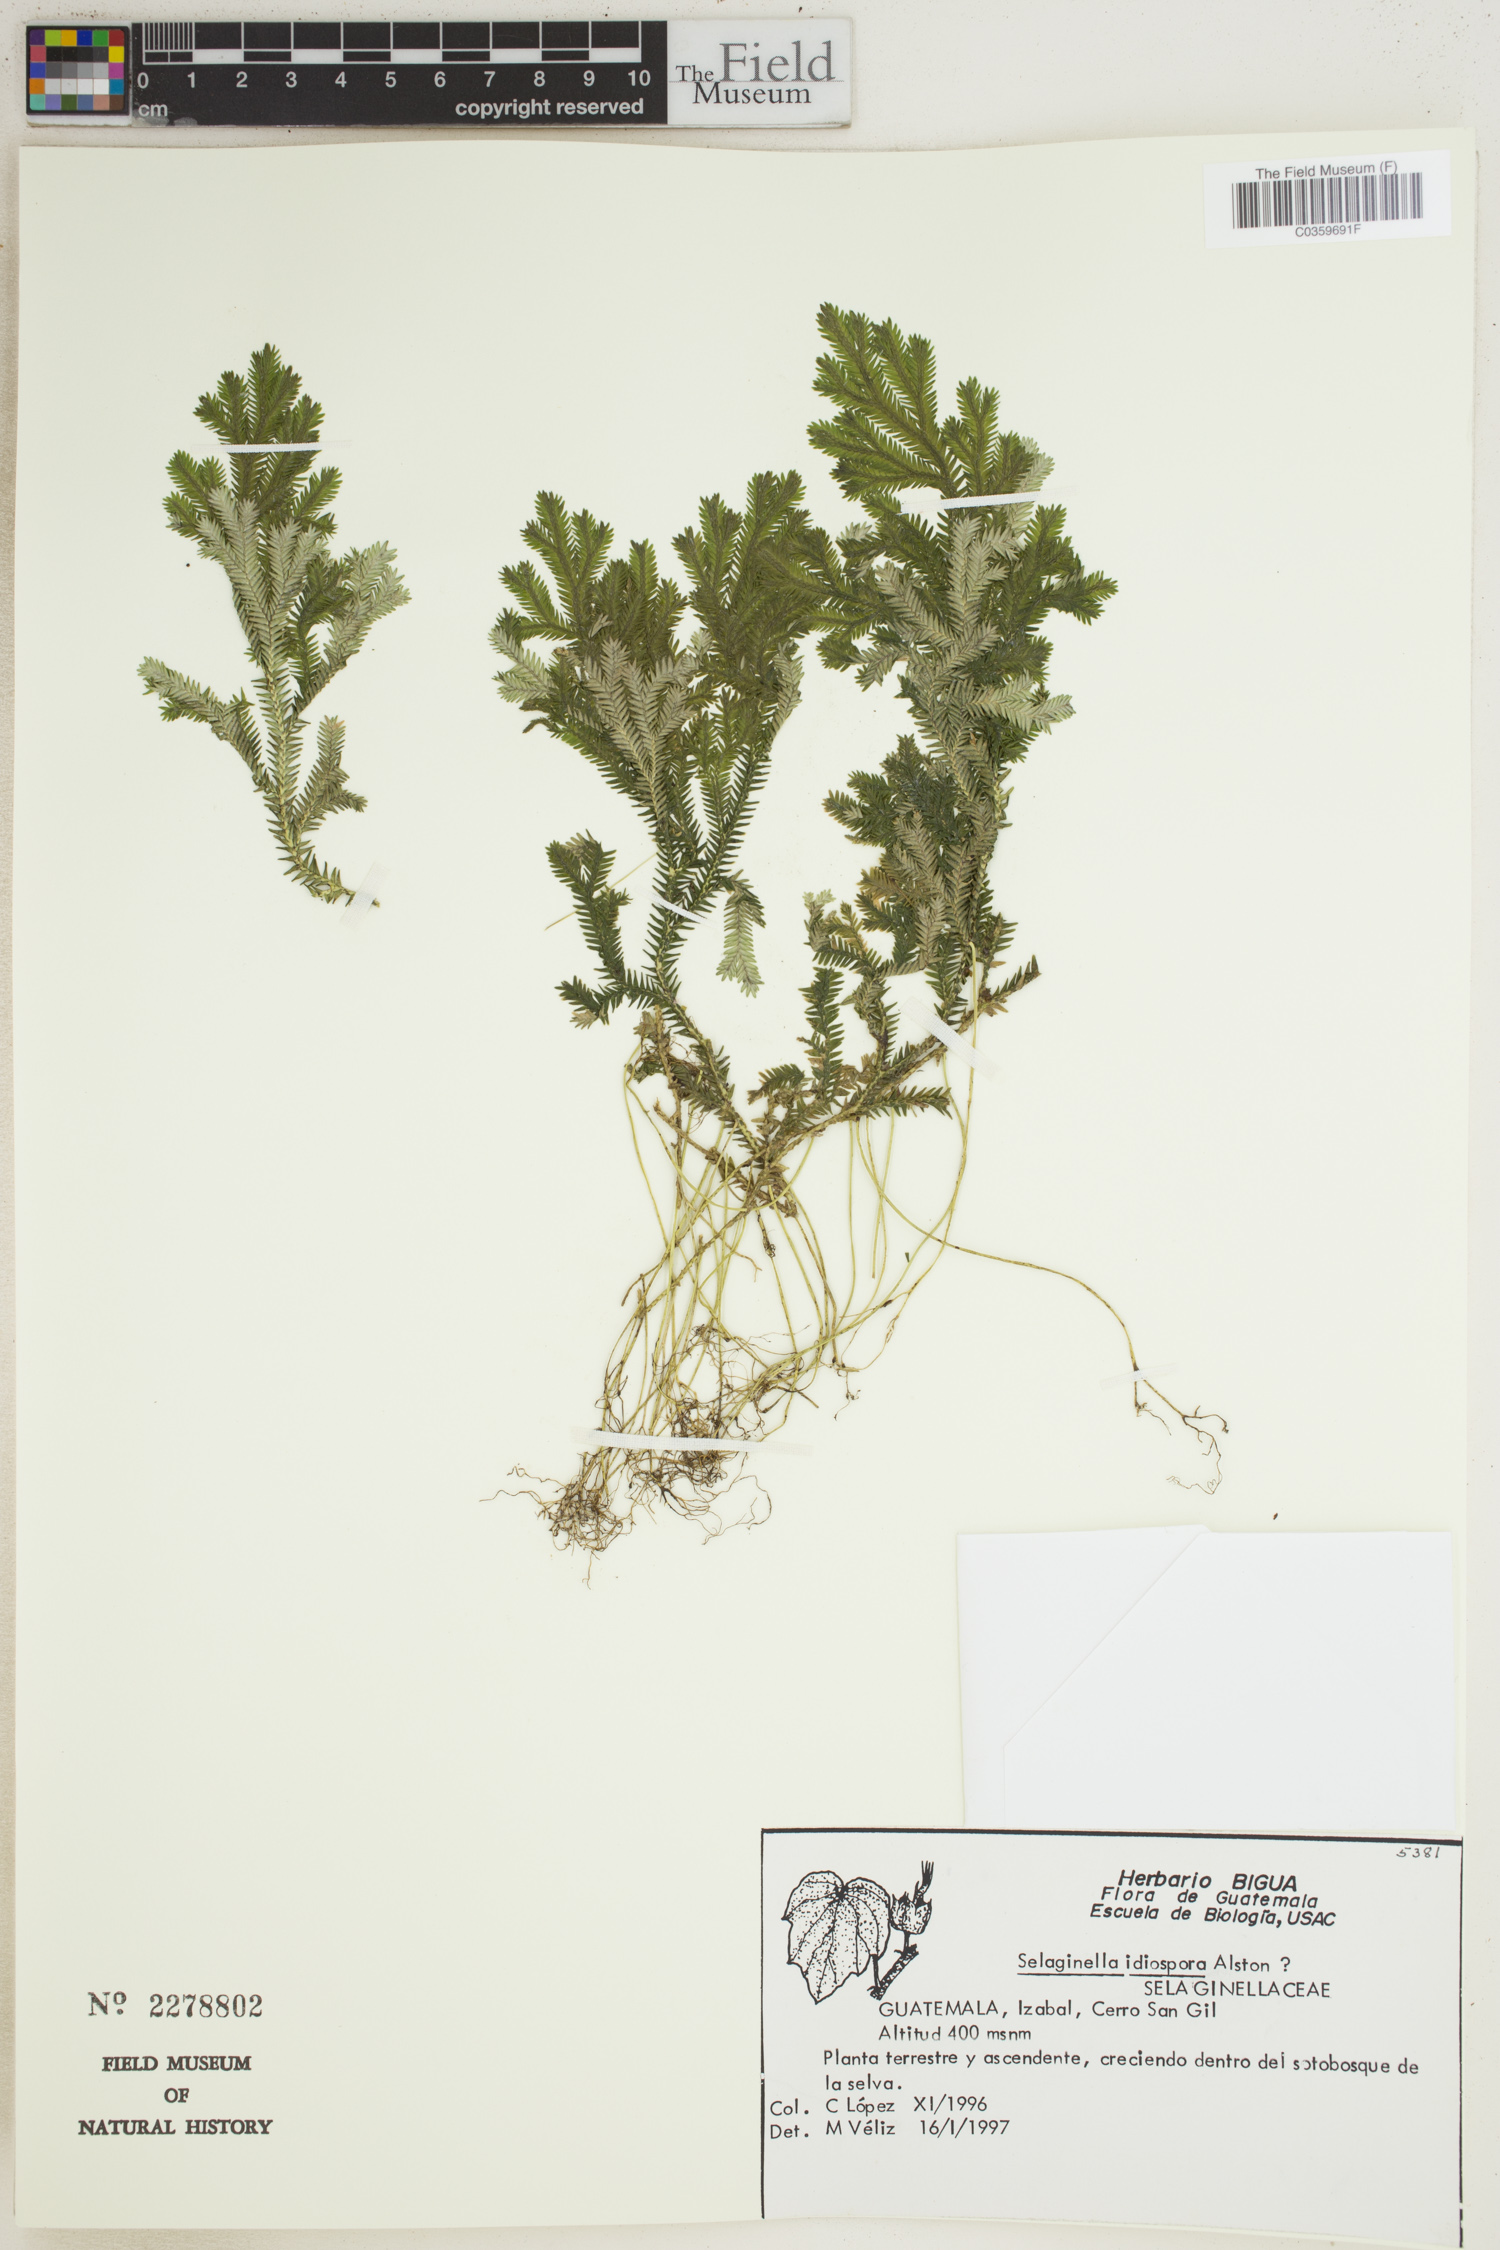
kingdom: Plantae
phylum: Tracheophyta
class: Lycopodiopsida
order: Selaginellales
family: Selaginellaceae
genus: Selaginella
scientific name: Selaginella idiospora
